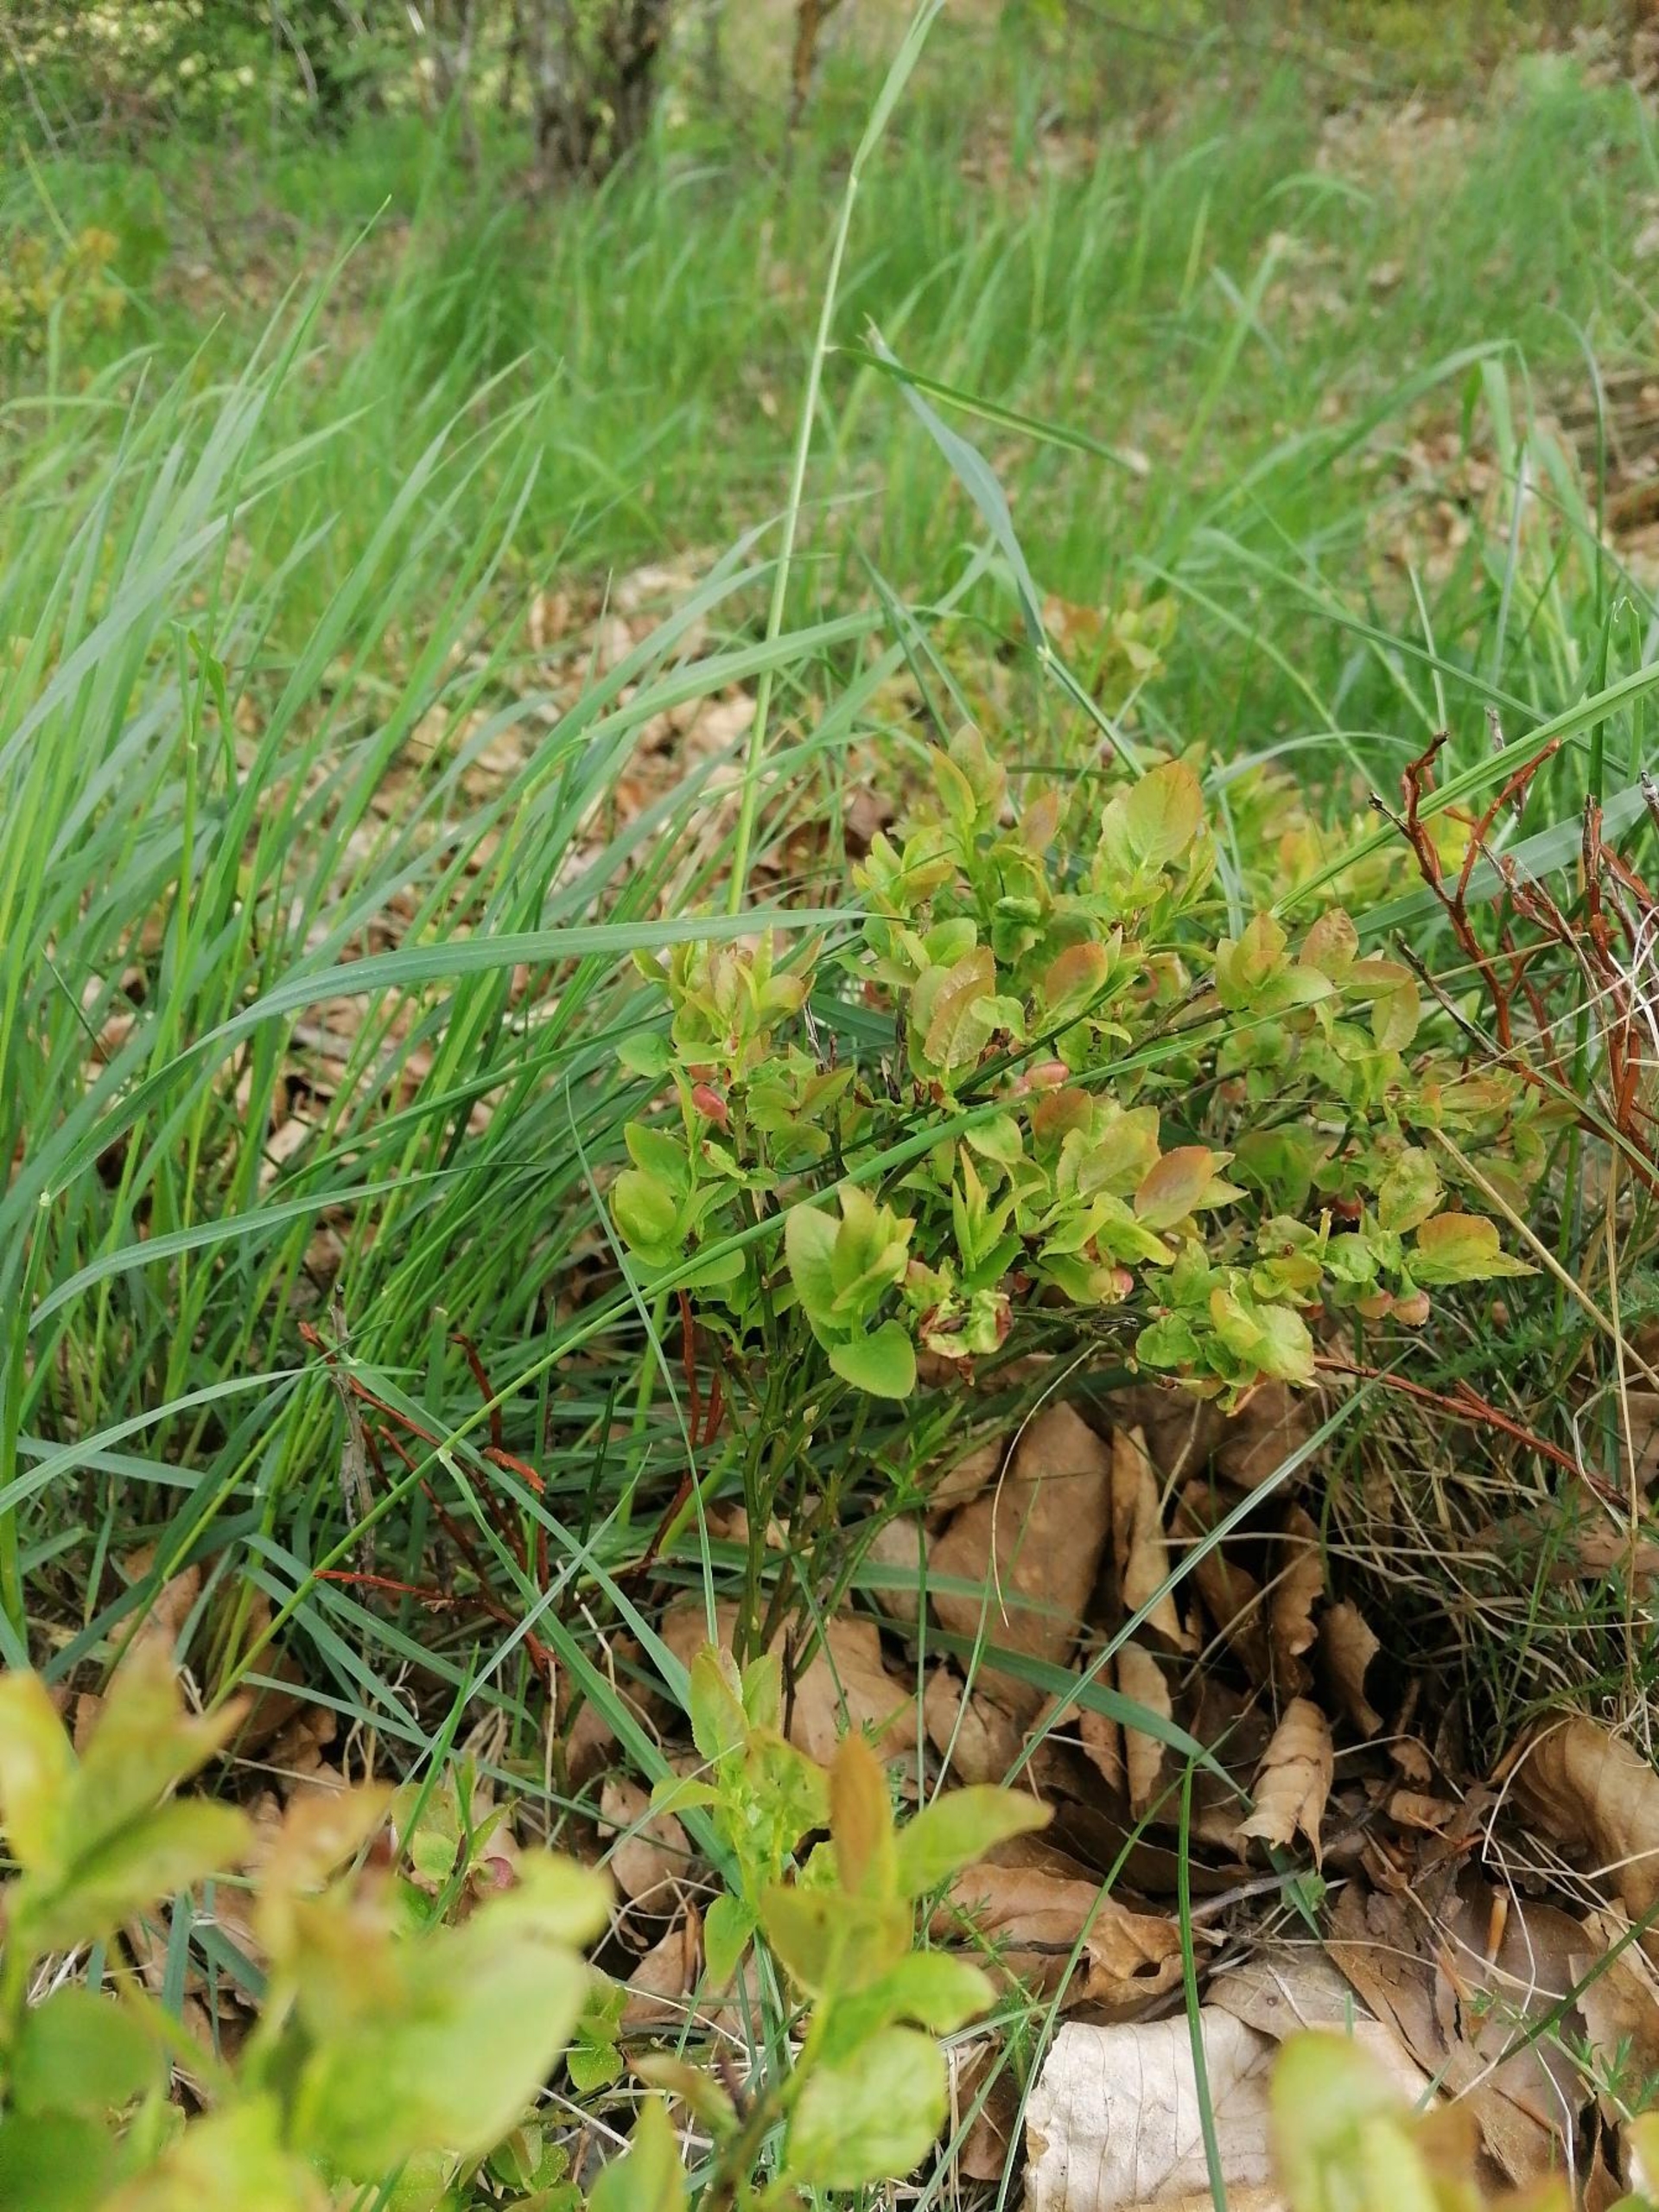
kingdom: Plantae
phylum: Tracheophyta
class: Magnoliopsida
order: Ericales
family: Ericaceae
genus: Vaccinium
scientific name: Vaccinium myrtillus
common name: Blåbær
